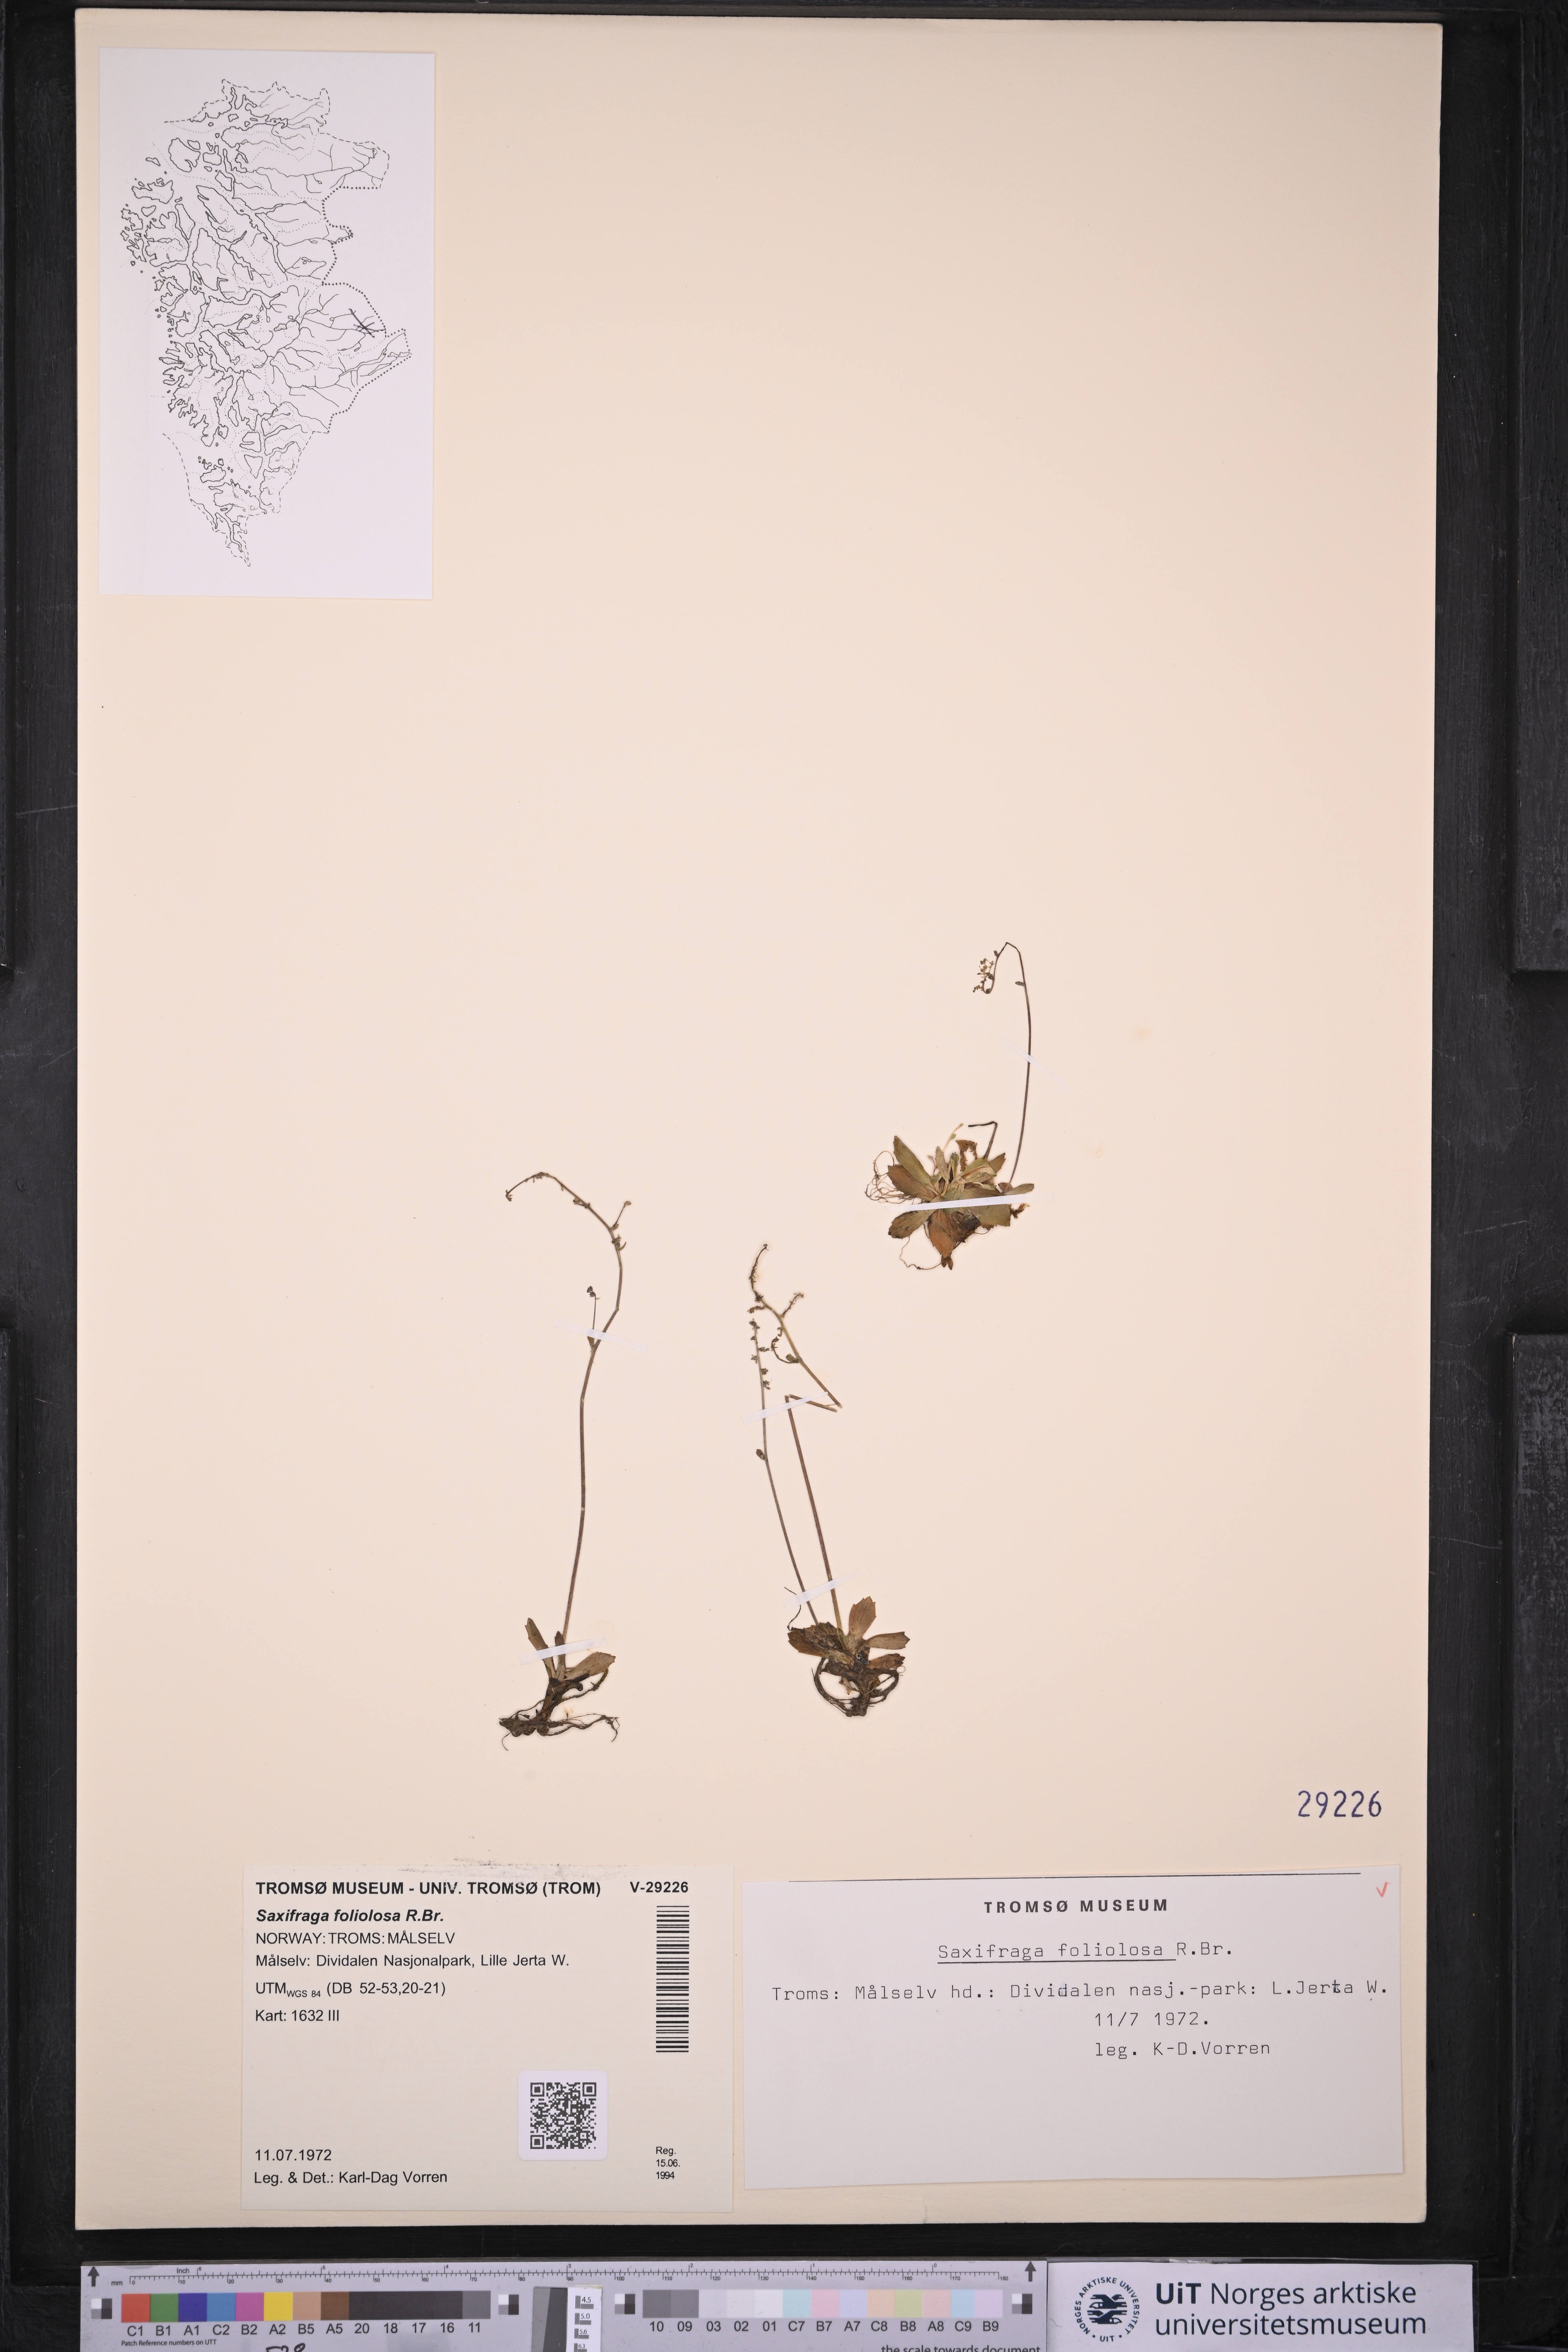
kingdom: Plantae
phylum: Tracheophyta
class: Magnoliopsida
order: Saxifragales
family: Saxifragaceae
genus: Micranthes
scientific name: Micranthes foliolosa
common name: Leafystem saxifrage
